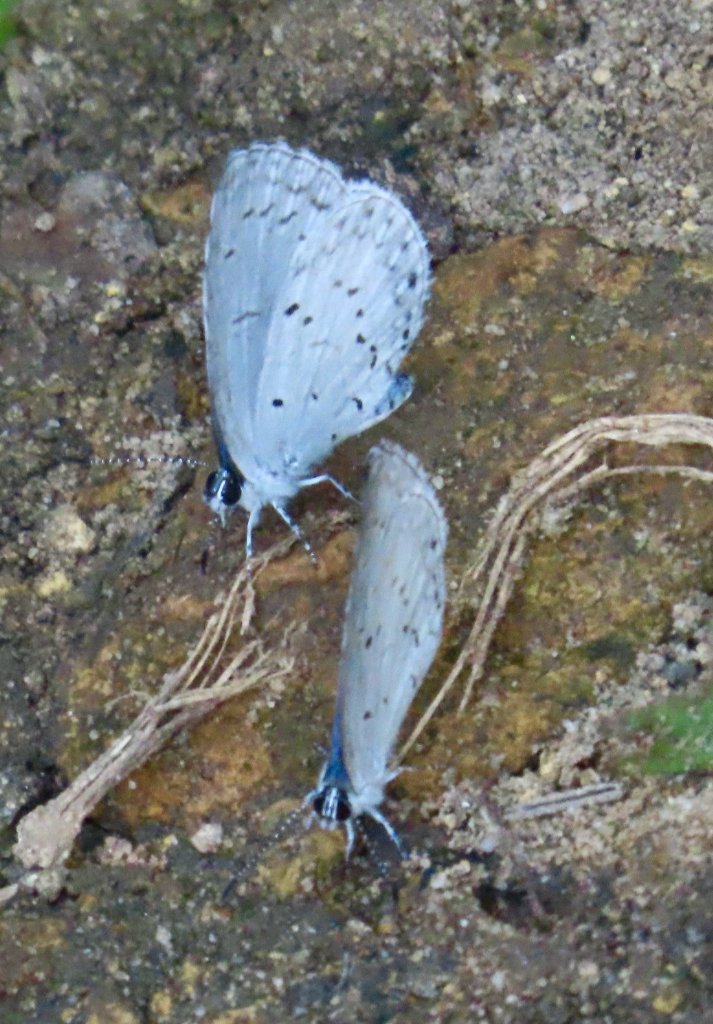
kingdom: Animalia
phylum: Arthropoda
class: Insecta
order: Lepidoptera
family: Lycaenidae
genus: Cyaniris
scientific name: Cyaniris neglecta
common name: Summer Azure
